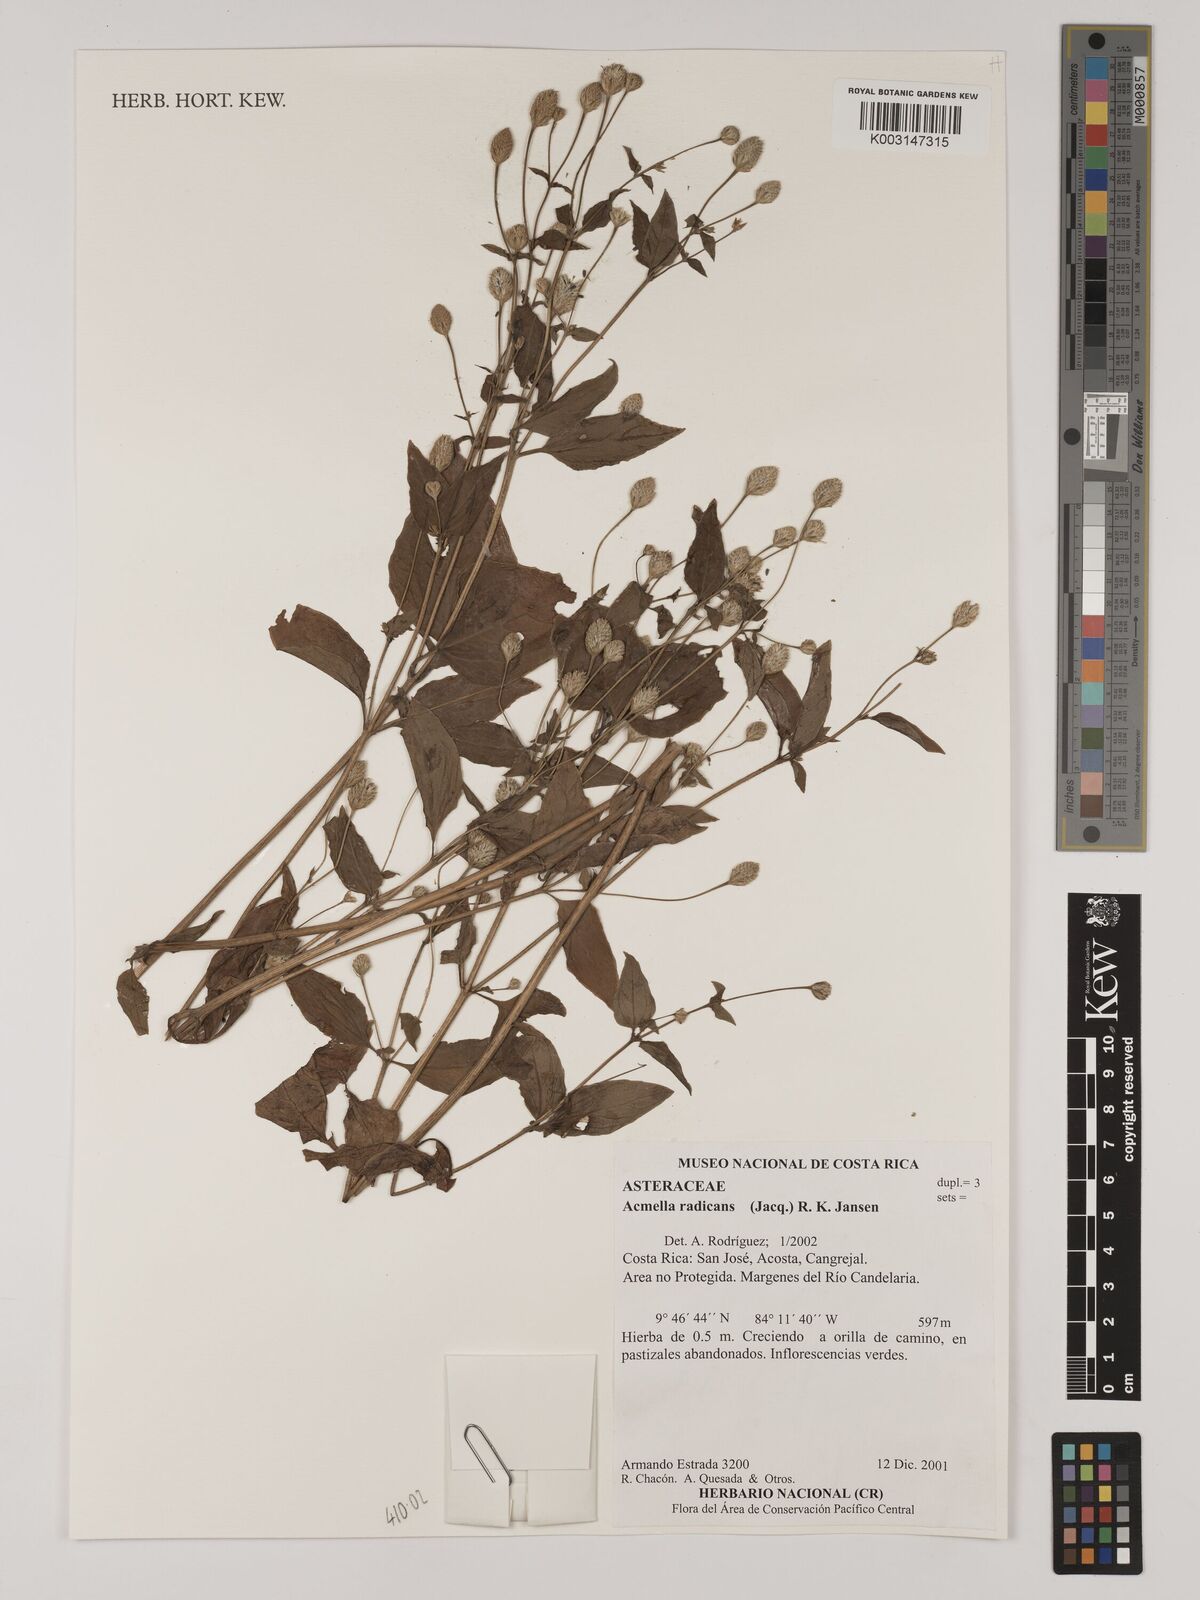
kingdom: Plantae
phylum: Tracheophyta
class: Magnoliopsida
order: Asterales
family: Asteraceae
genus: Acmella
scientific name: Acmella radicans
